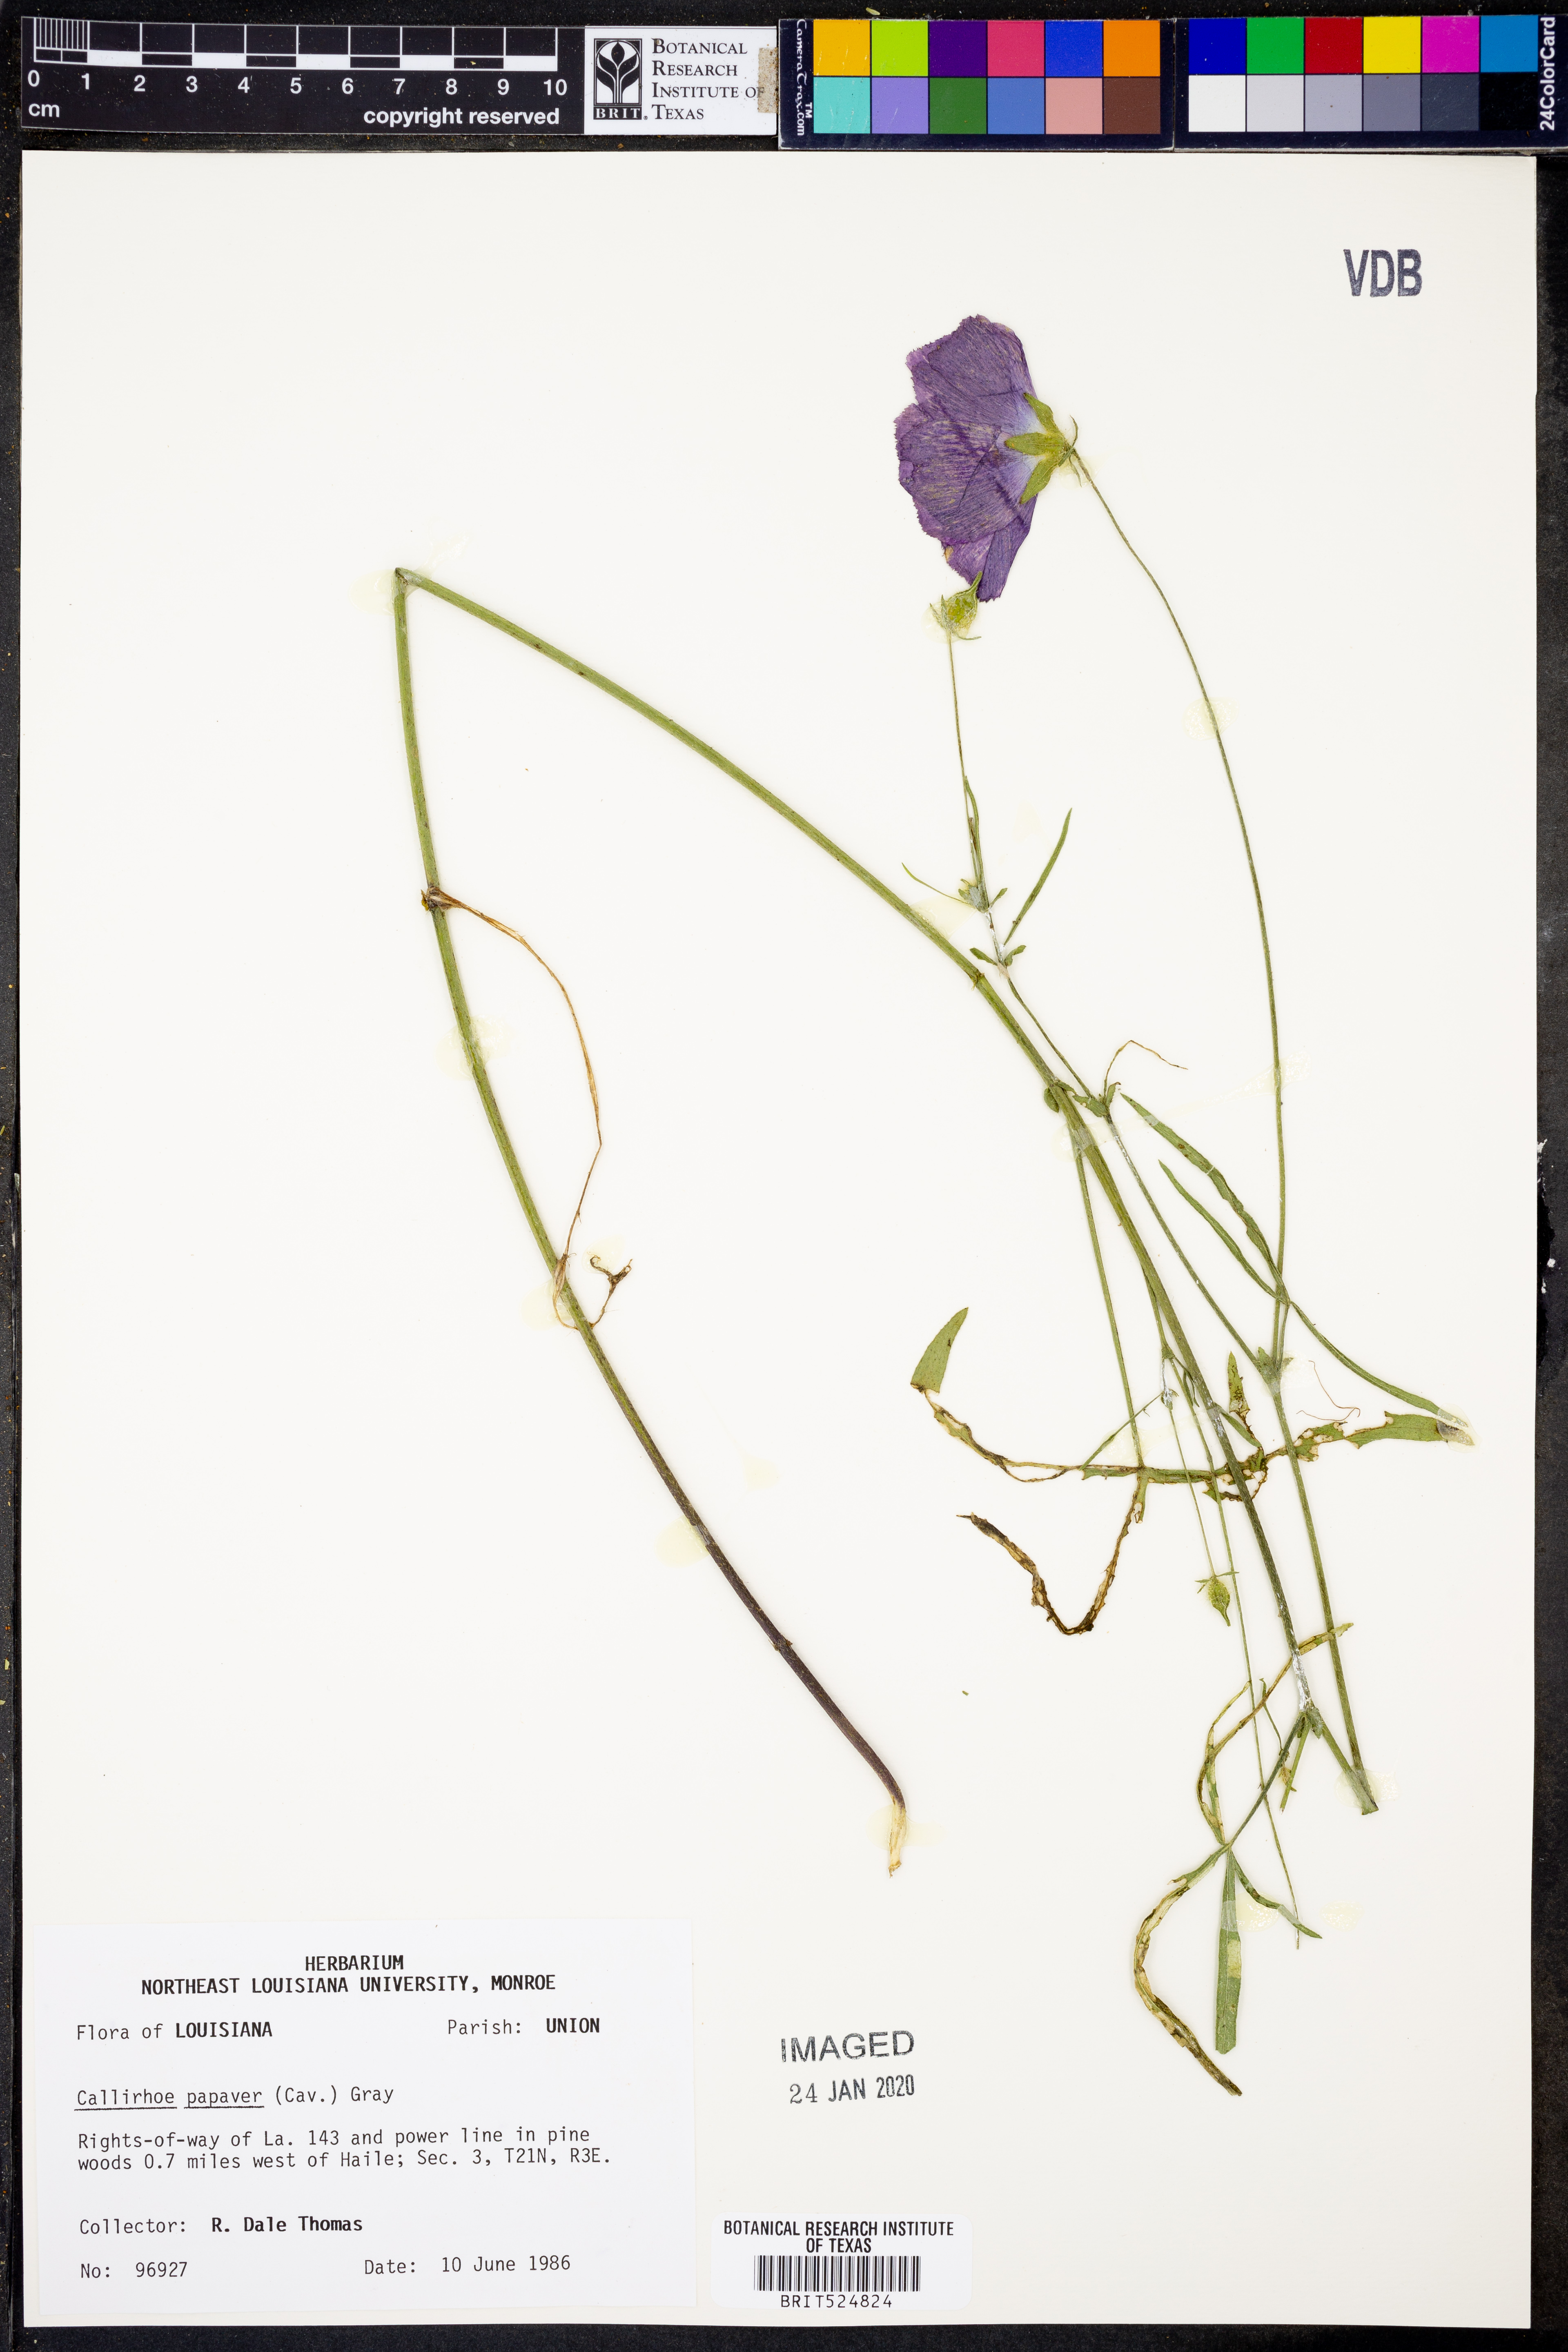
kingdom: Plantae
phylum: Tracheophyta
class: Magnoliopsida
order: Malvales
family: Malvaceae
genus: Callirhoe
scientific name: Callirhoe papaver
